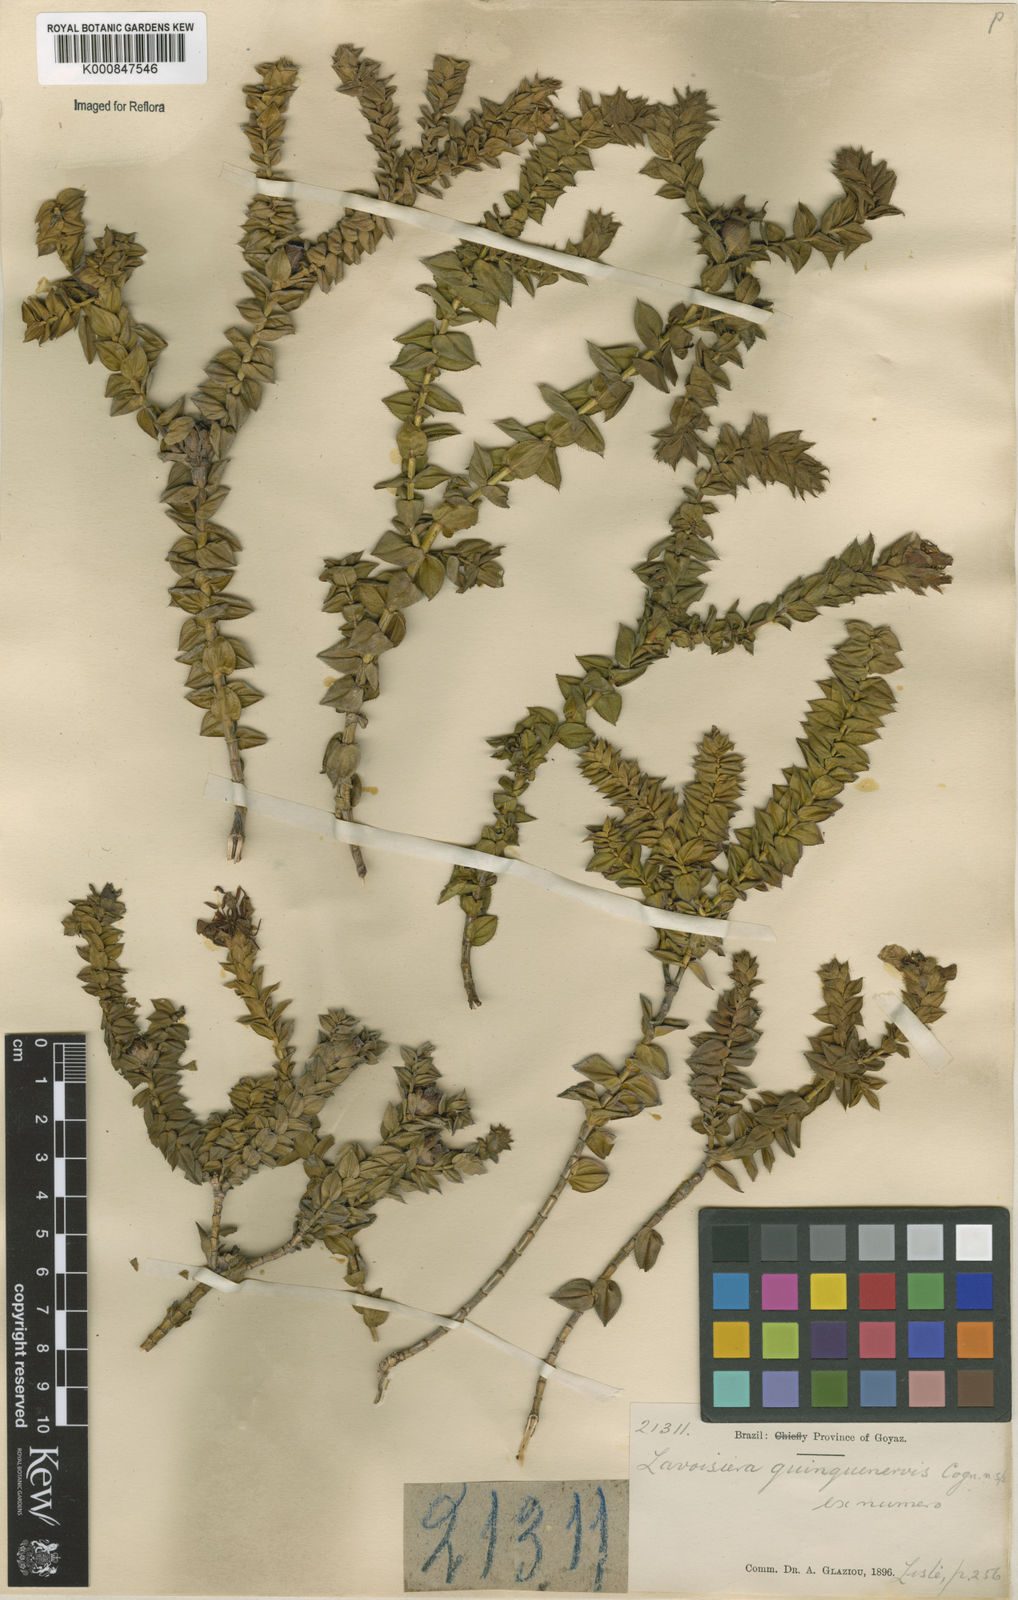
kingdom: Plantae
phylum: Tracheophyta
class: Magnoliopsida
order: Myrtales
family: Melastomataceae
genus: Microlicia
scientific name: Microlicia quinquenervis
